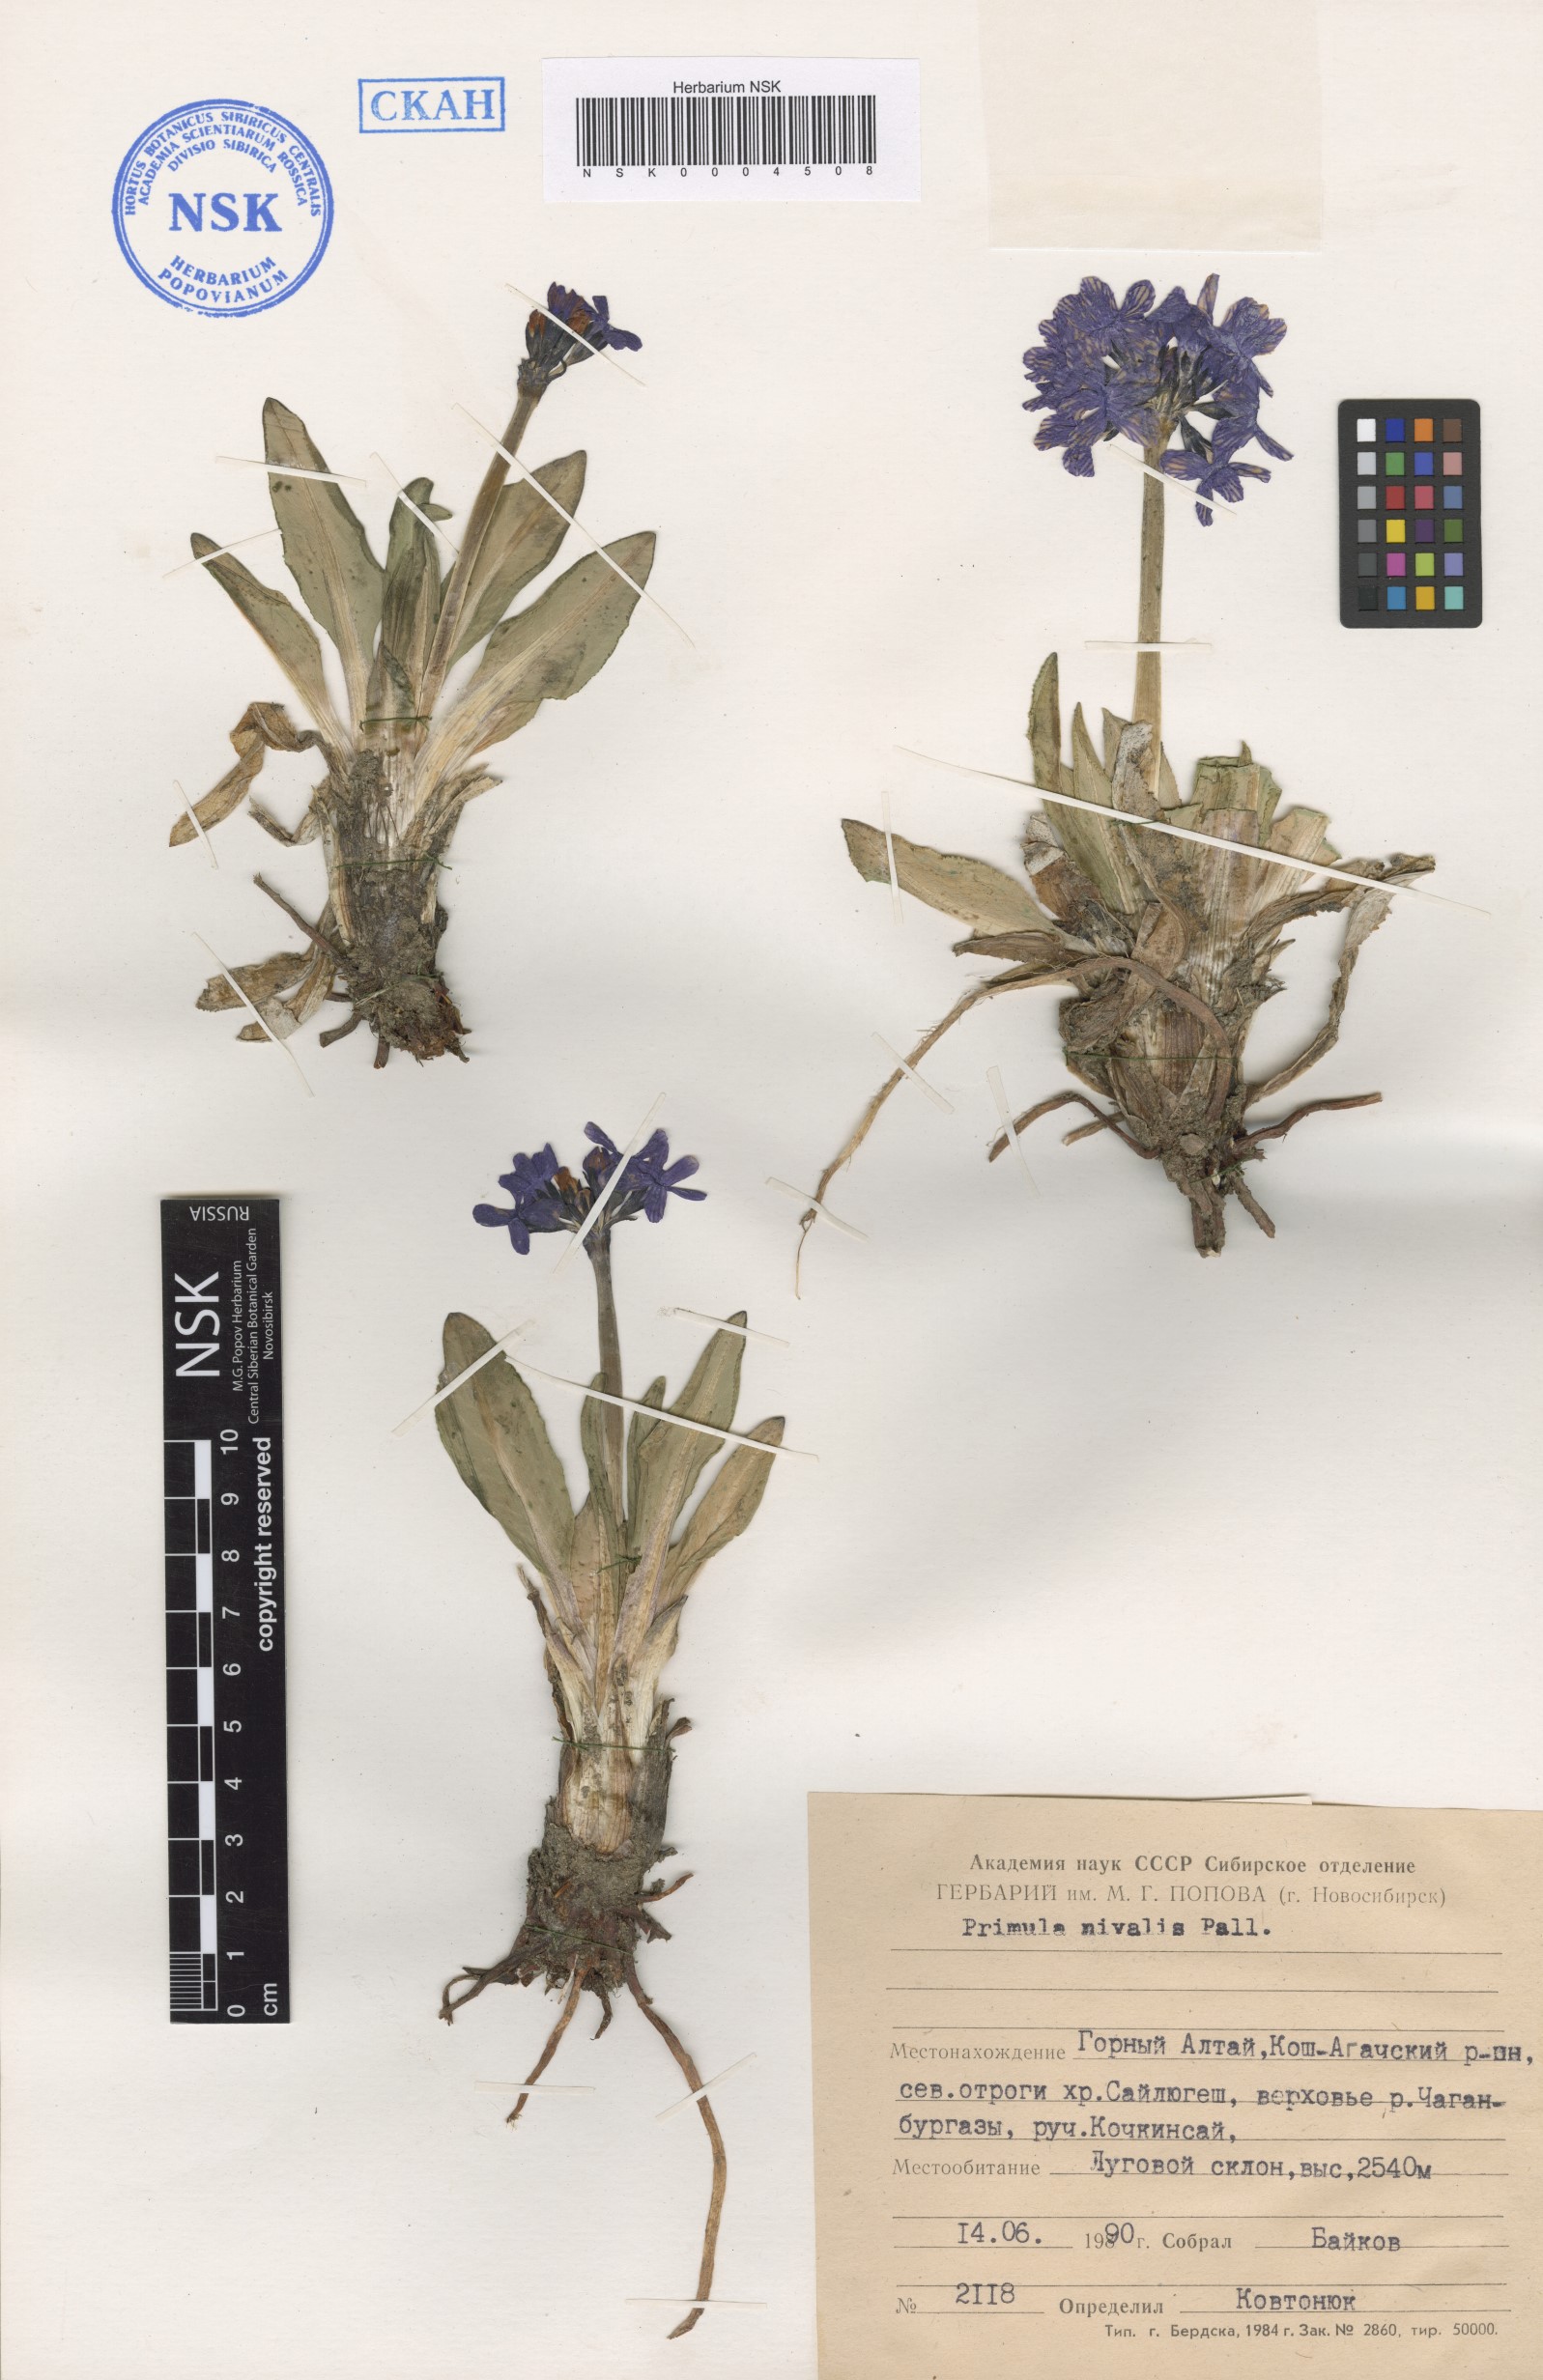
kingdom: Plantae
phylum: Tracheophyta
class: Magnoliopsida
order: Ericales
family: Primulaceae
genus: Primula
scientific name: Primula nivalis
